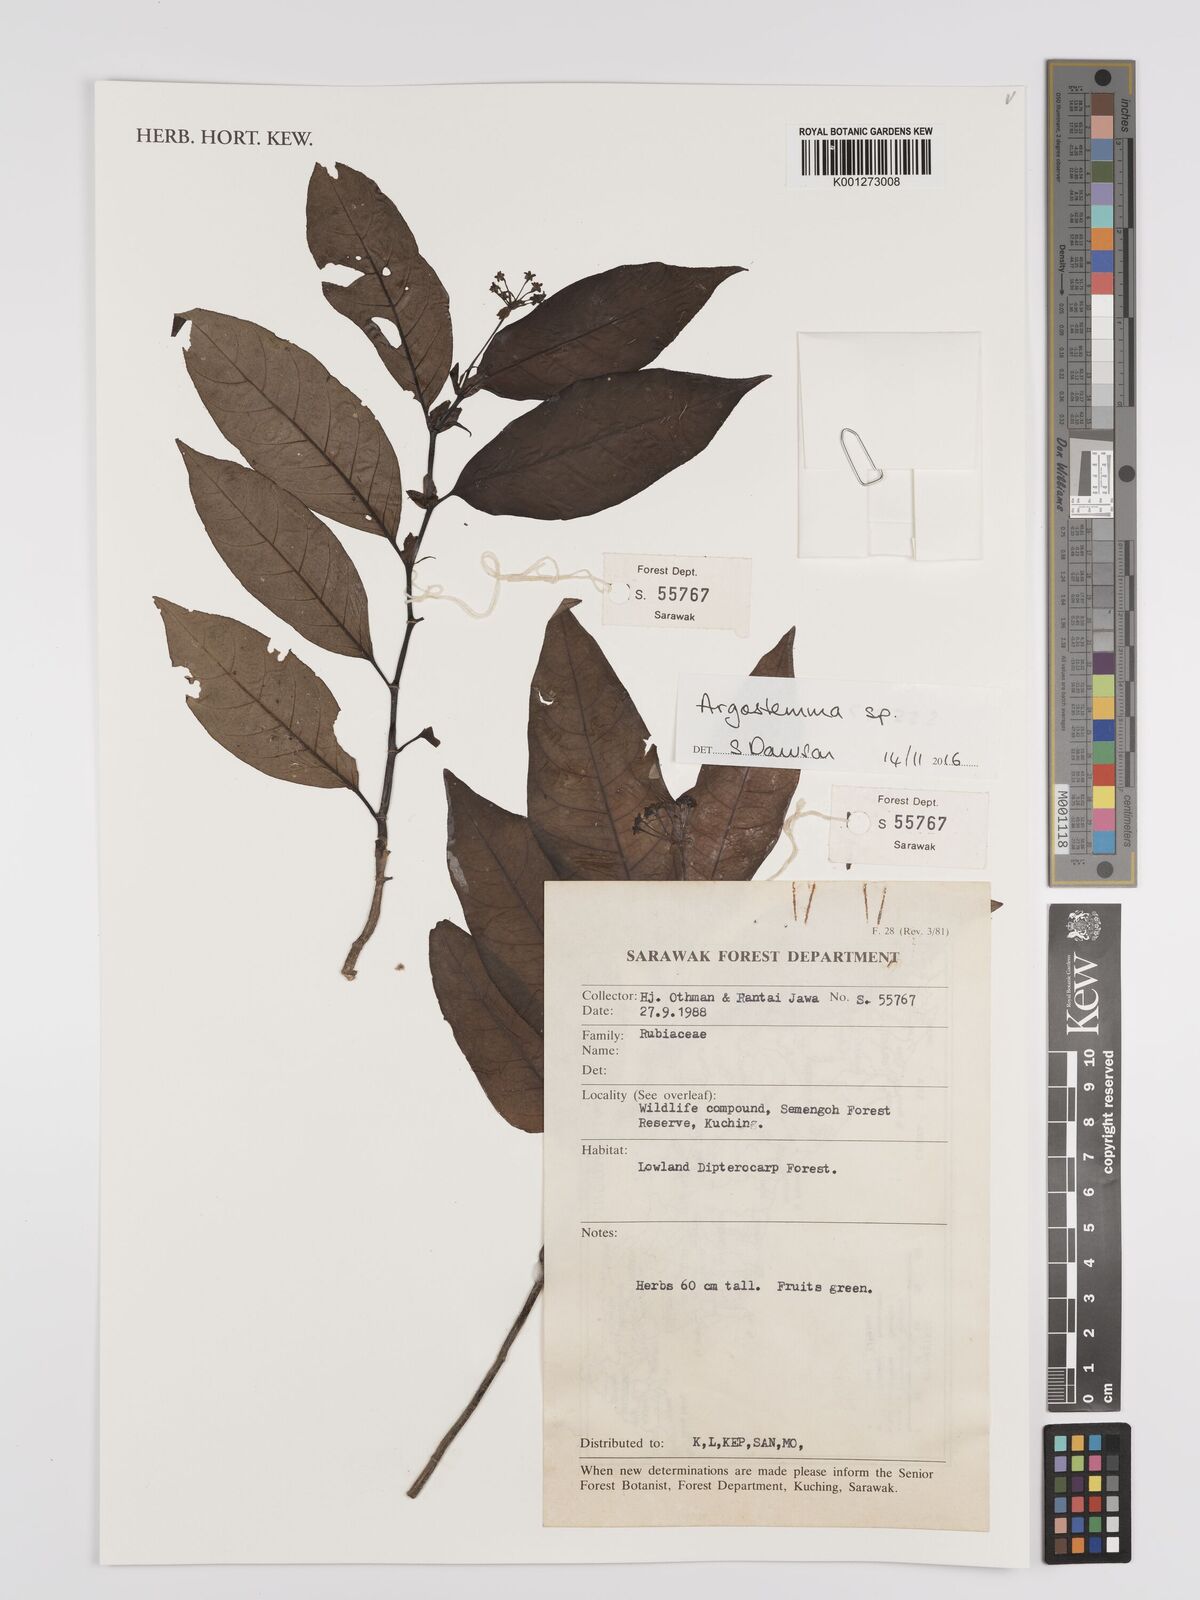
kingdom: Plantae
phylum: Tracheophyta
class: Magnoliopsida
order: Gentianales
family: Rubiaceae
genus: Argostemma
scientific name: Argostemma
